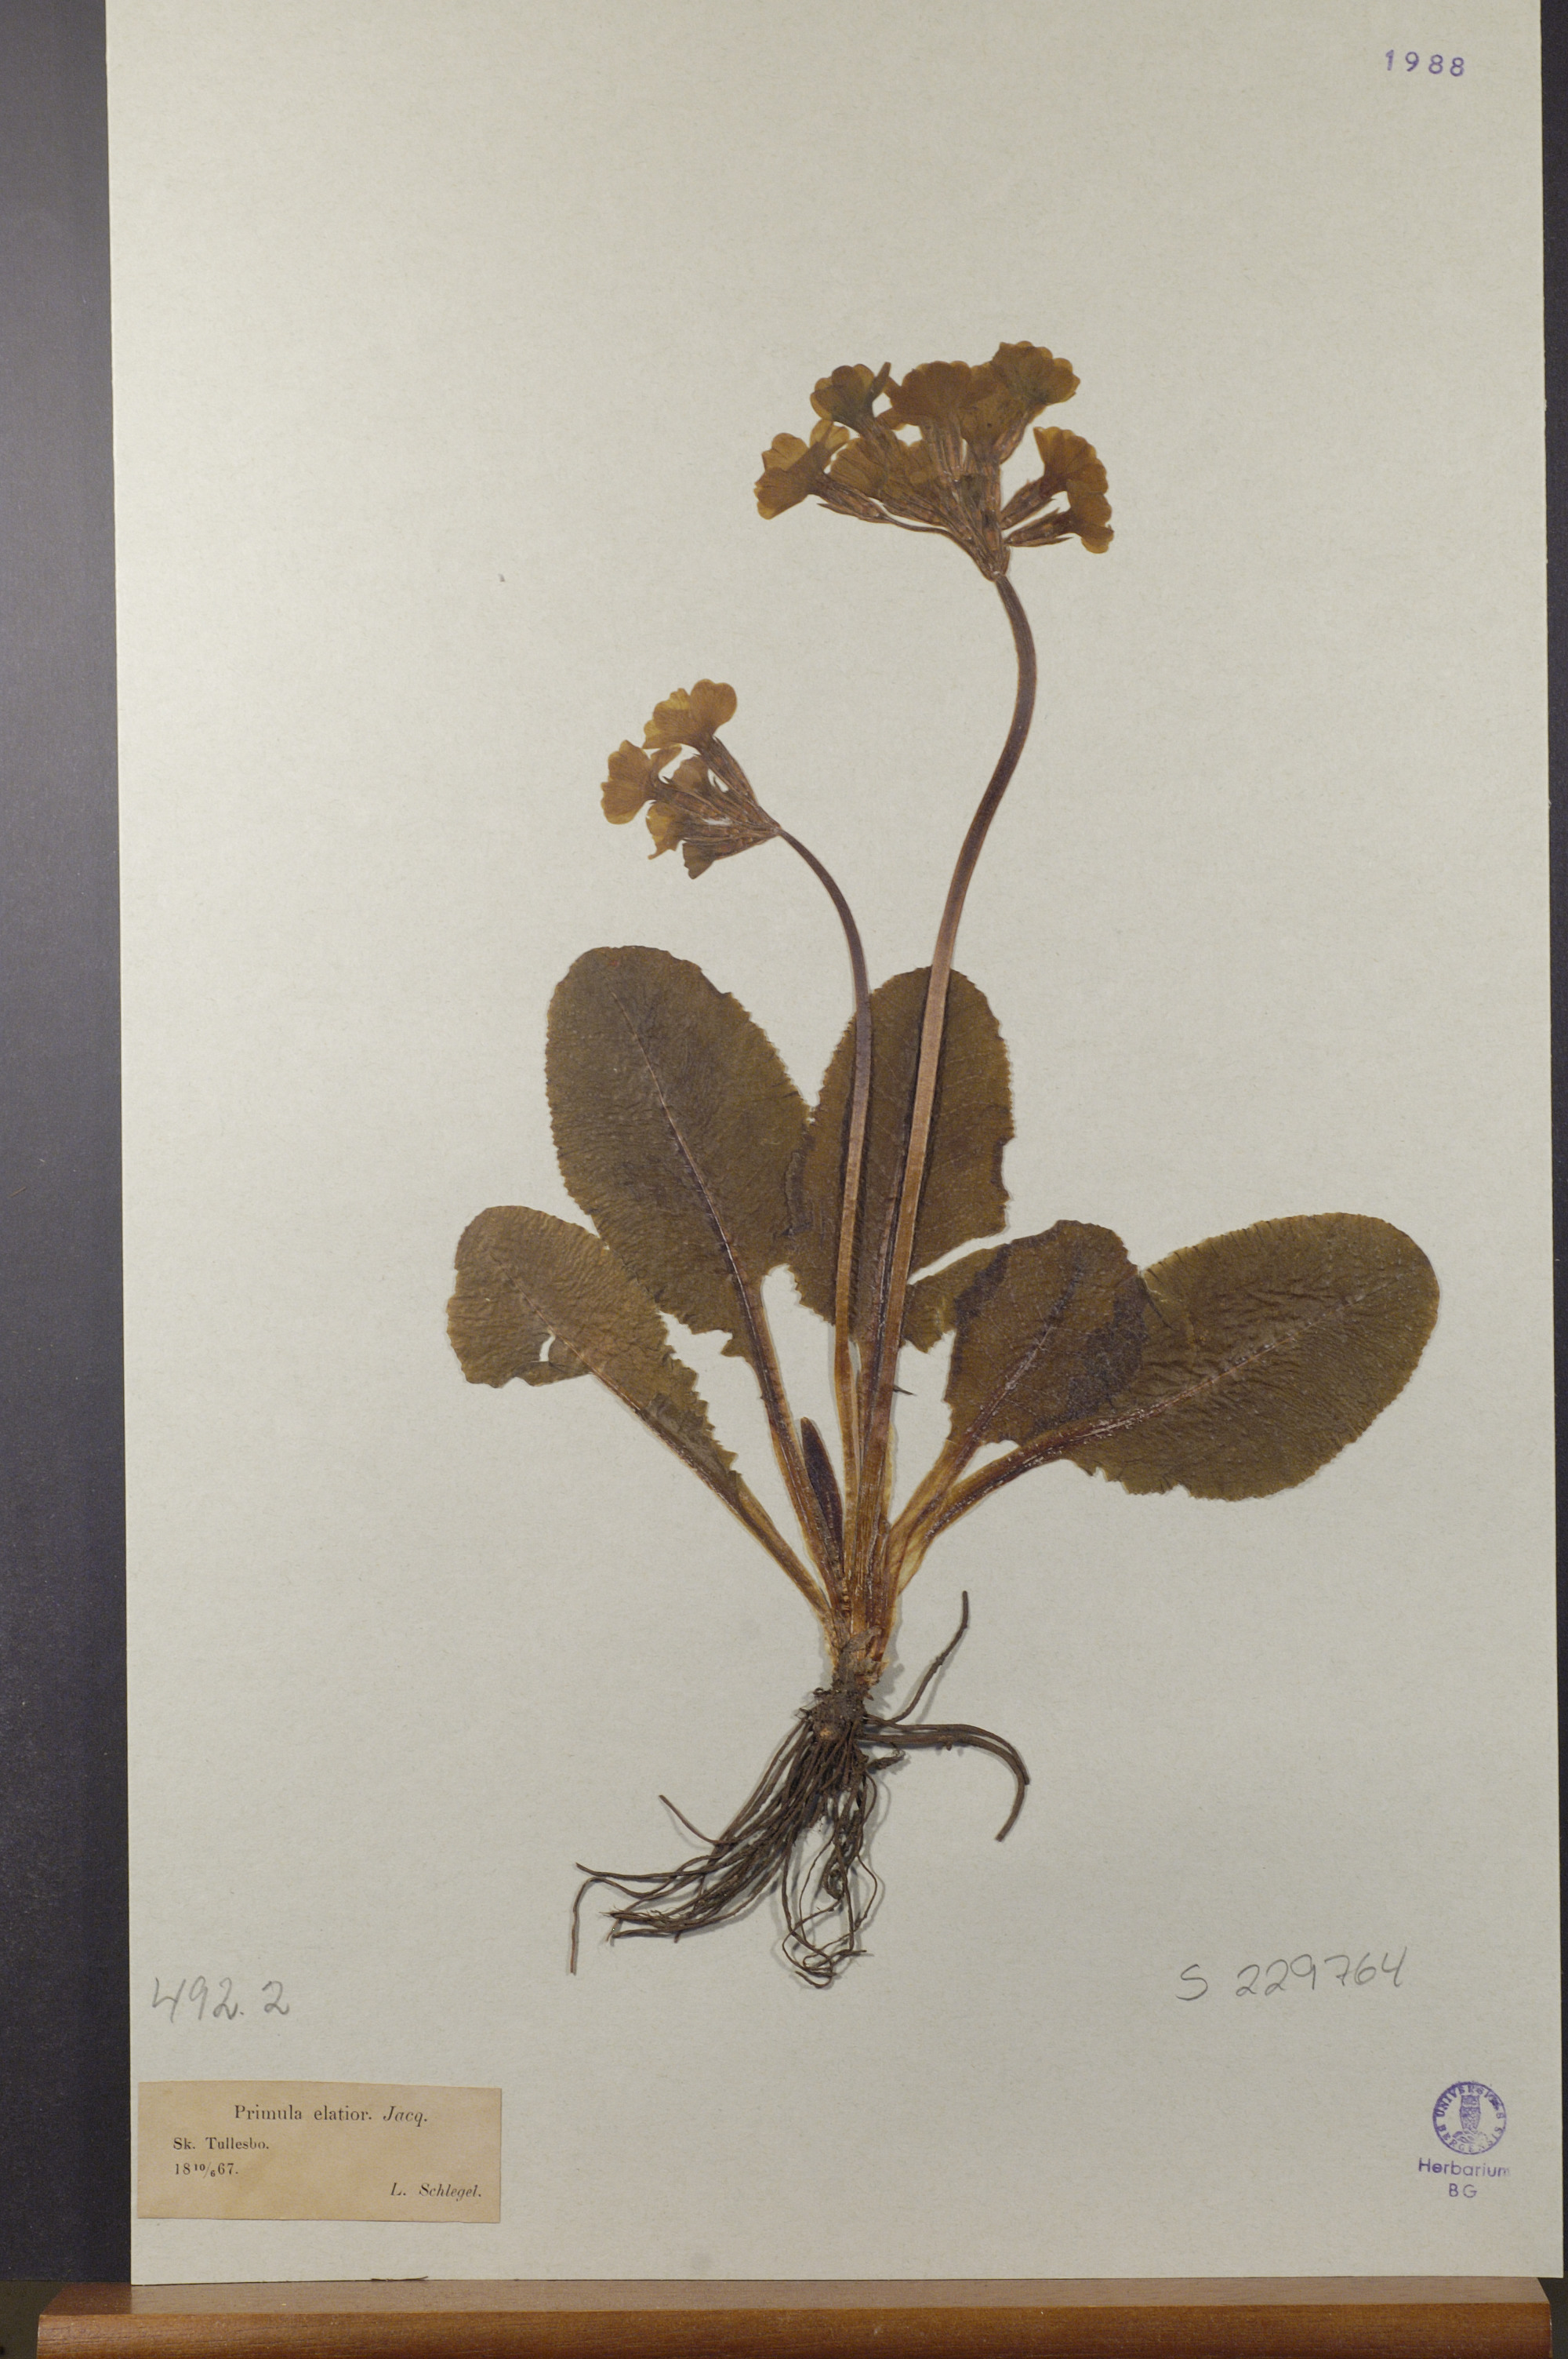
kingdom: Plantae
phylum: Tracheophyta
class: Magnoliopsida
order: Ericales
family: Primulaceae
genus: Primula
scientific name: Primula elatior
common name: Oxlip
